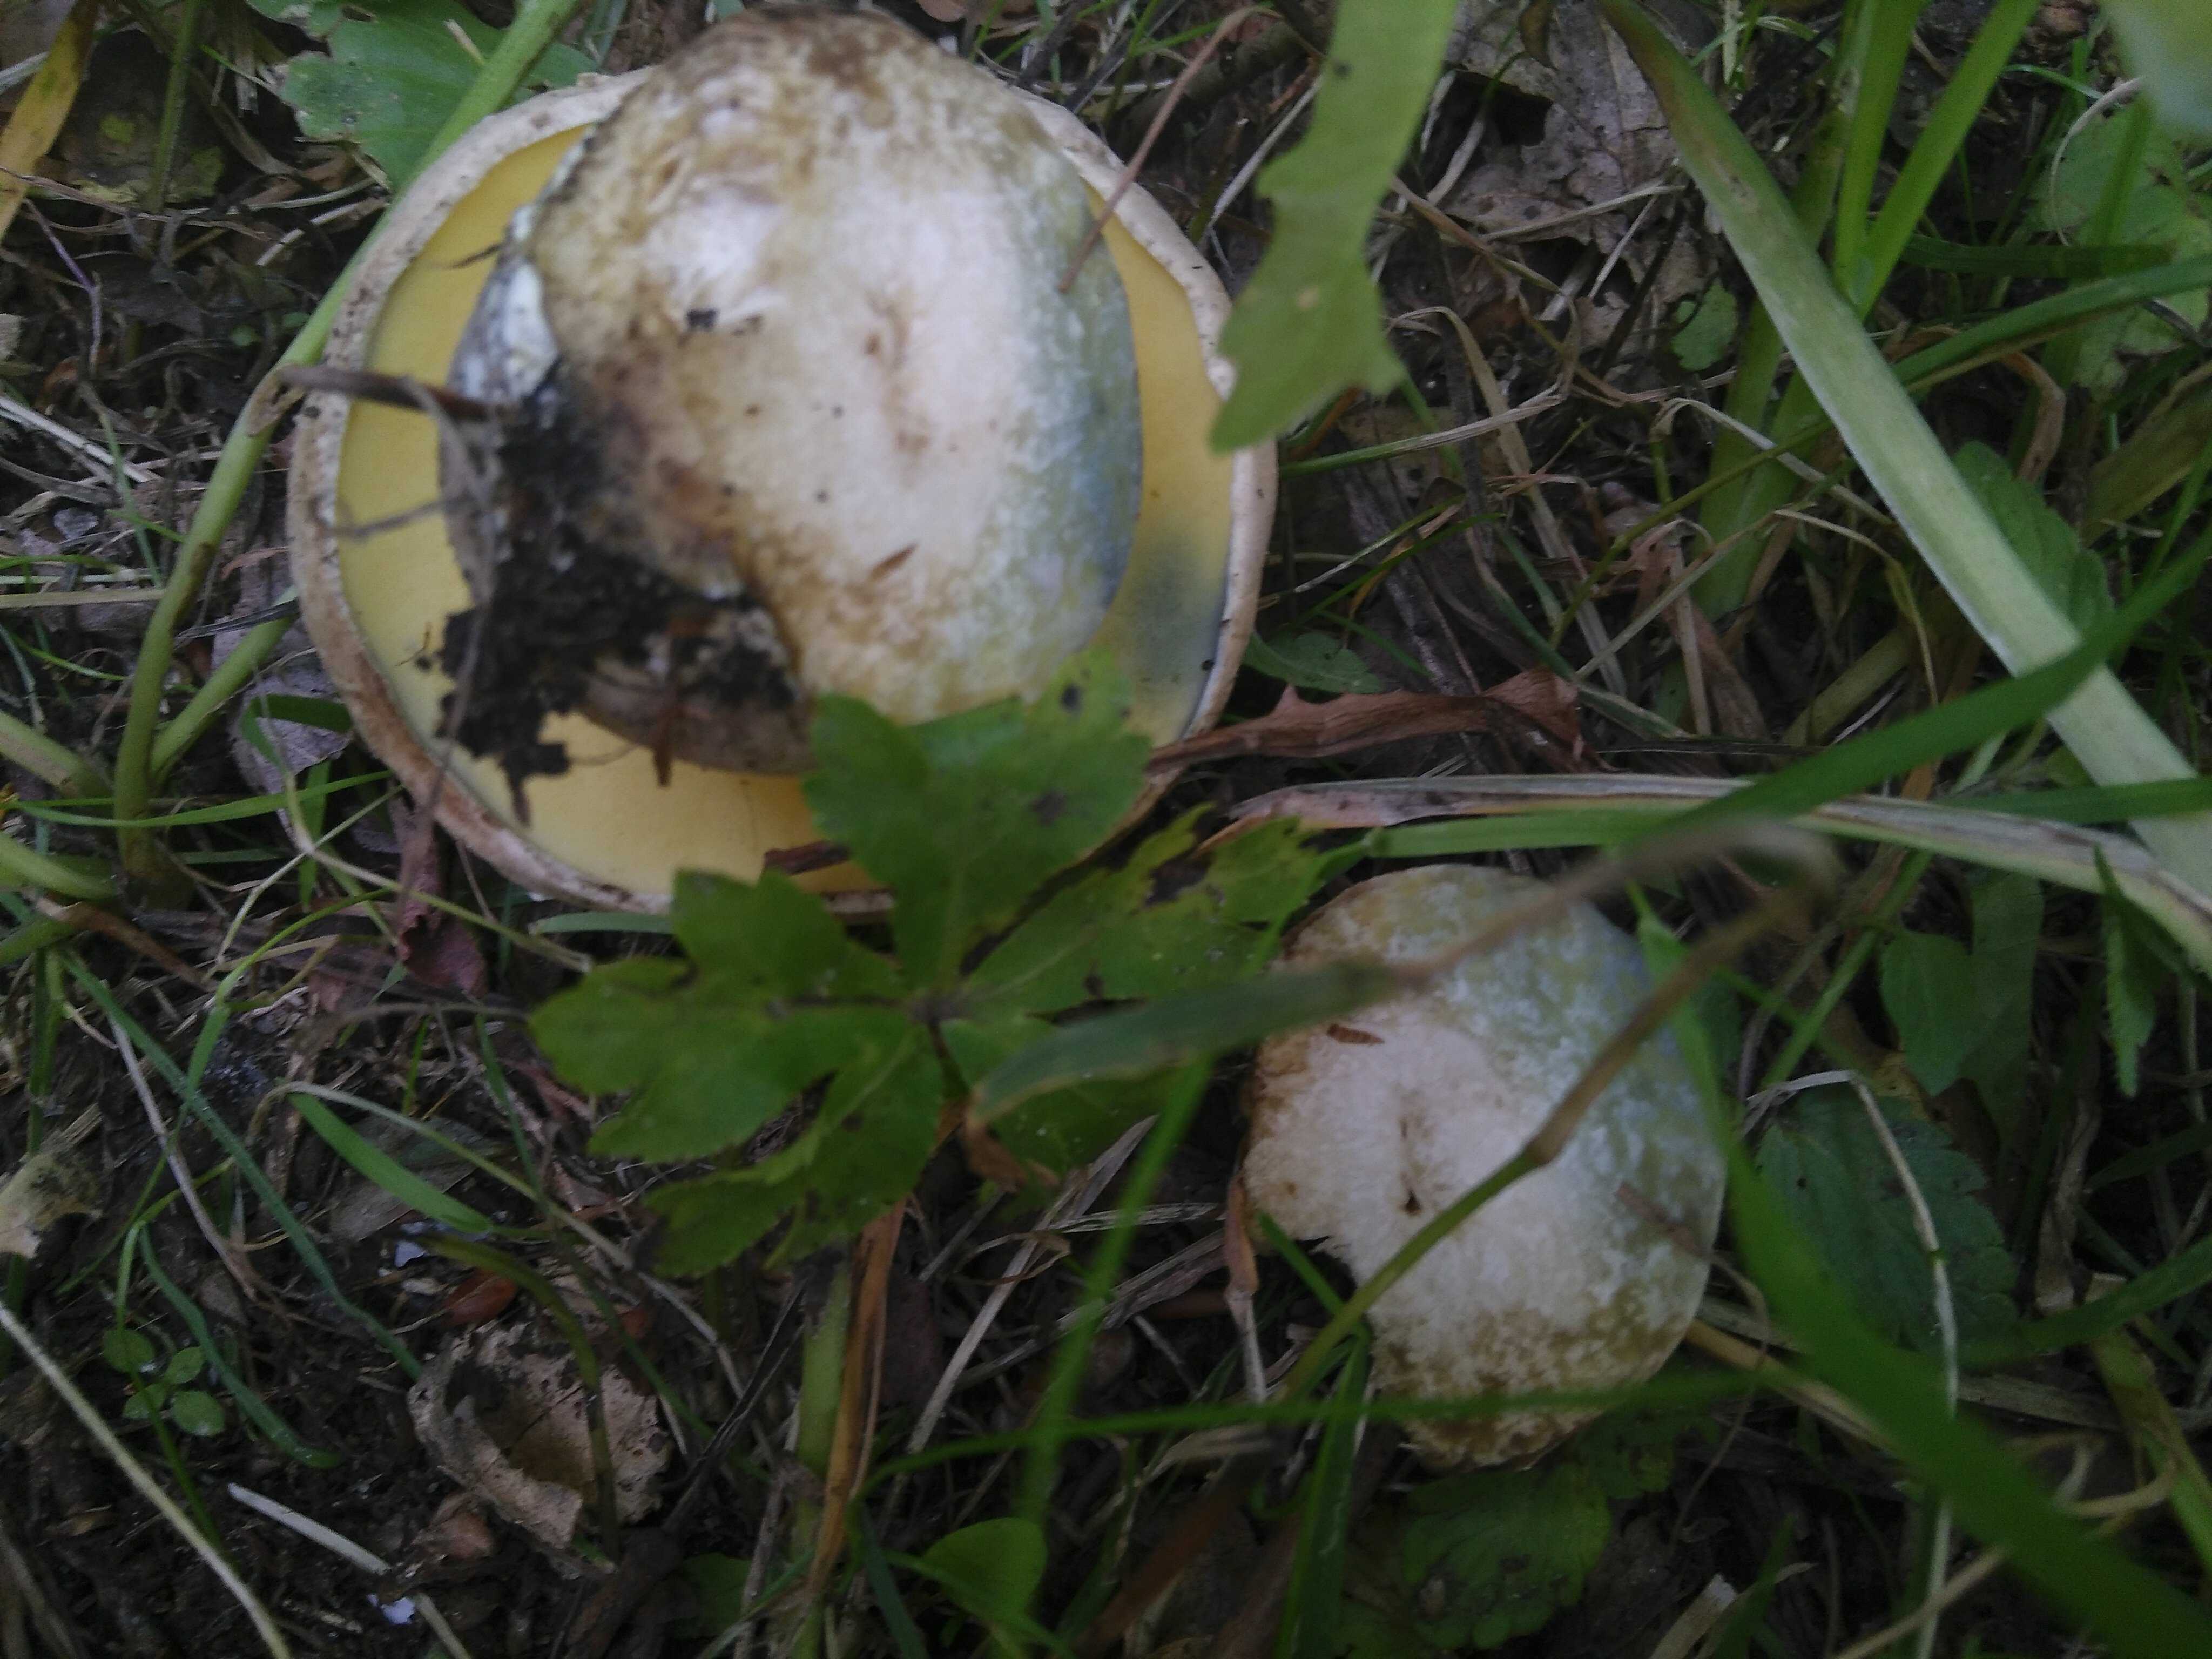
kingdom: Fungi
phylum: Basidiomycota
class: Agaricomycetes
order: Boletales
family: Boletaceae
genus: Caloboletus
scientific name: Caloboletus radicans
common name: rod-rørhat
